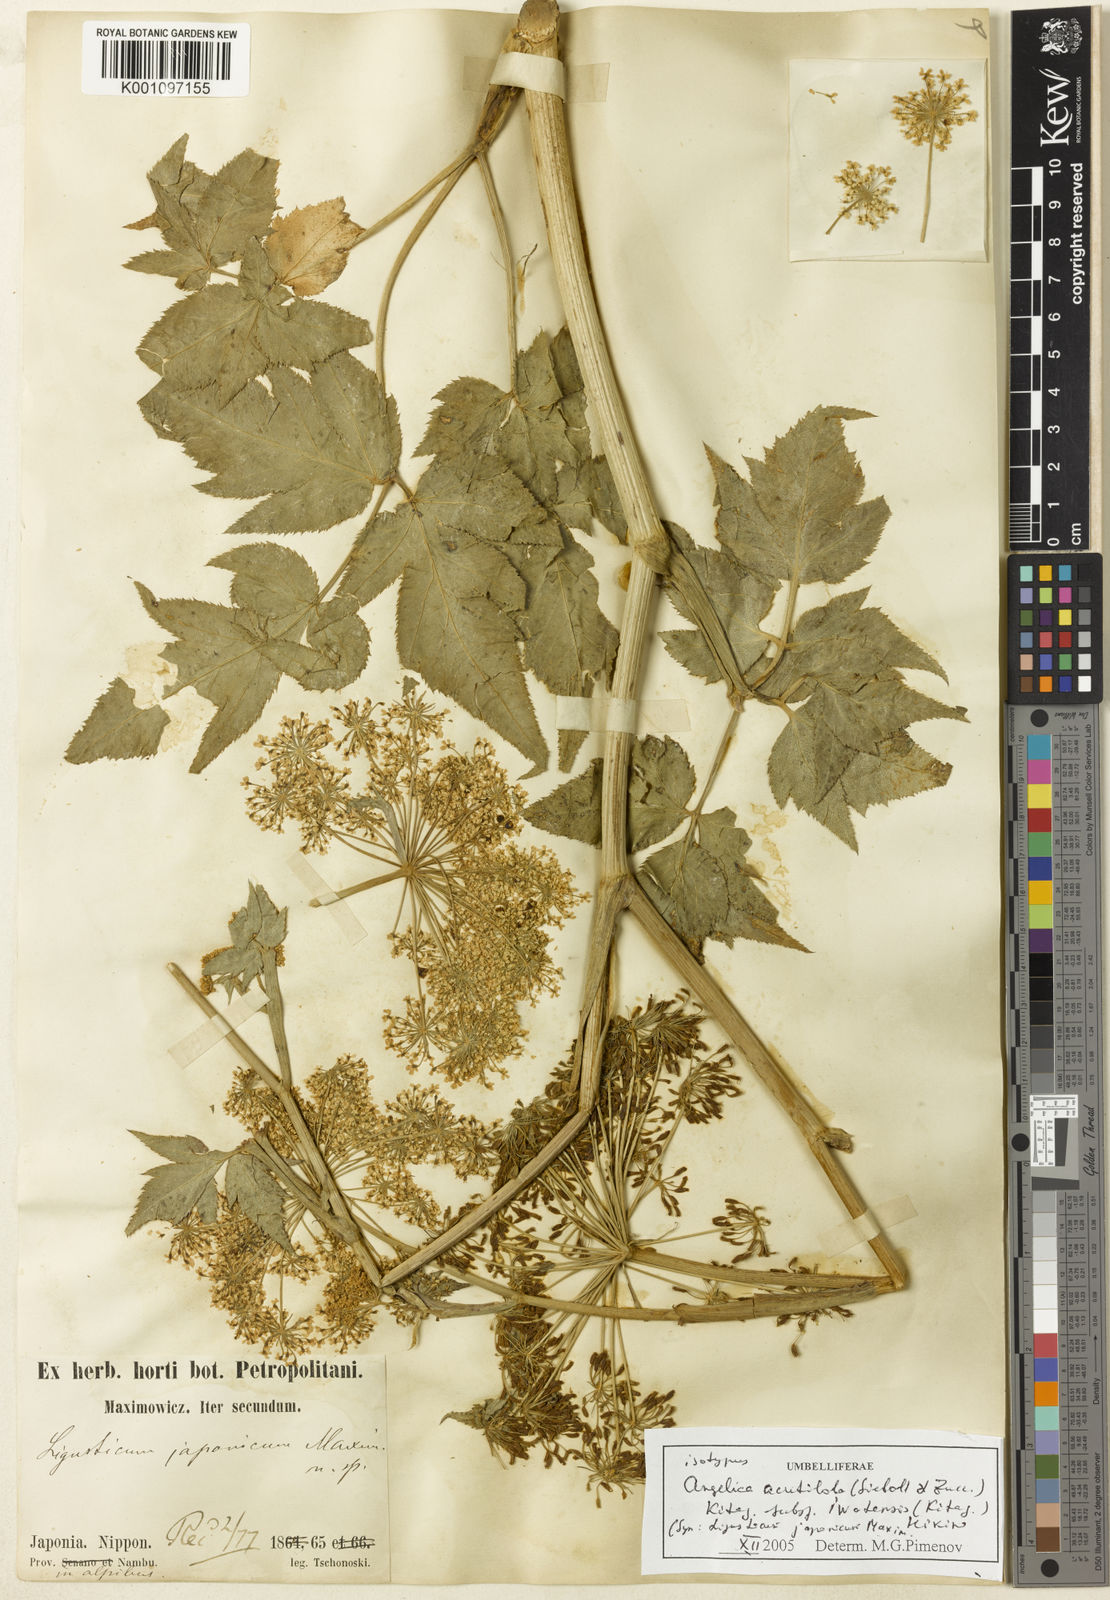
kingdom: Plantae
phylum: Tracheophyta
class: Magnoliopsida
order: Apiales
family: Apiaceae
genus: Angelica
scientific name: Angelica acutiloba
